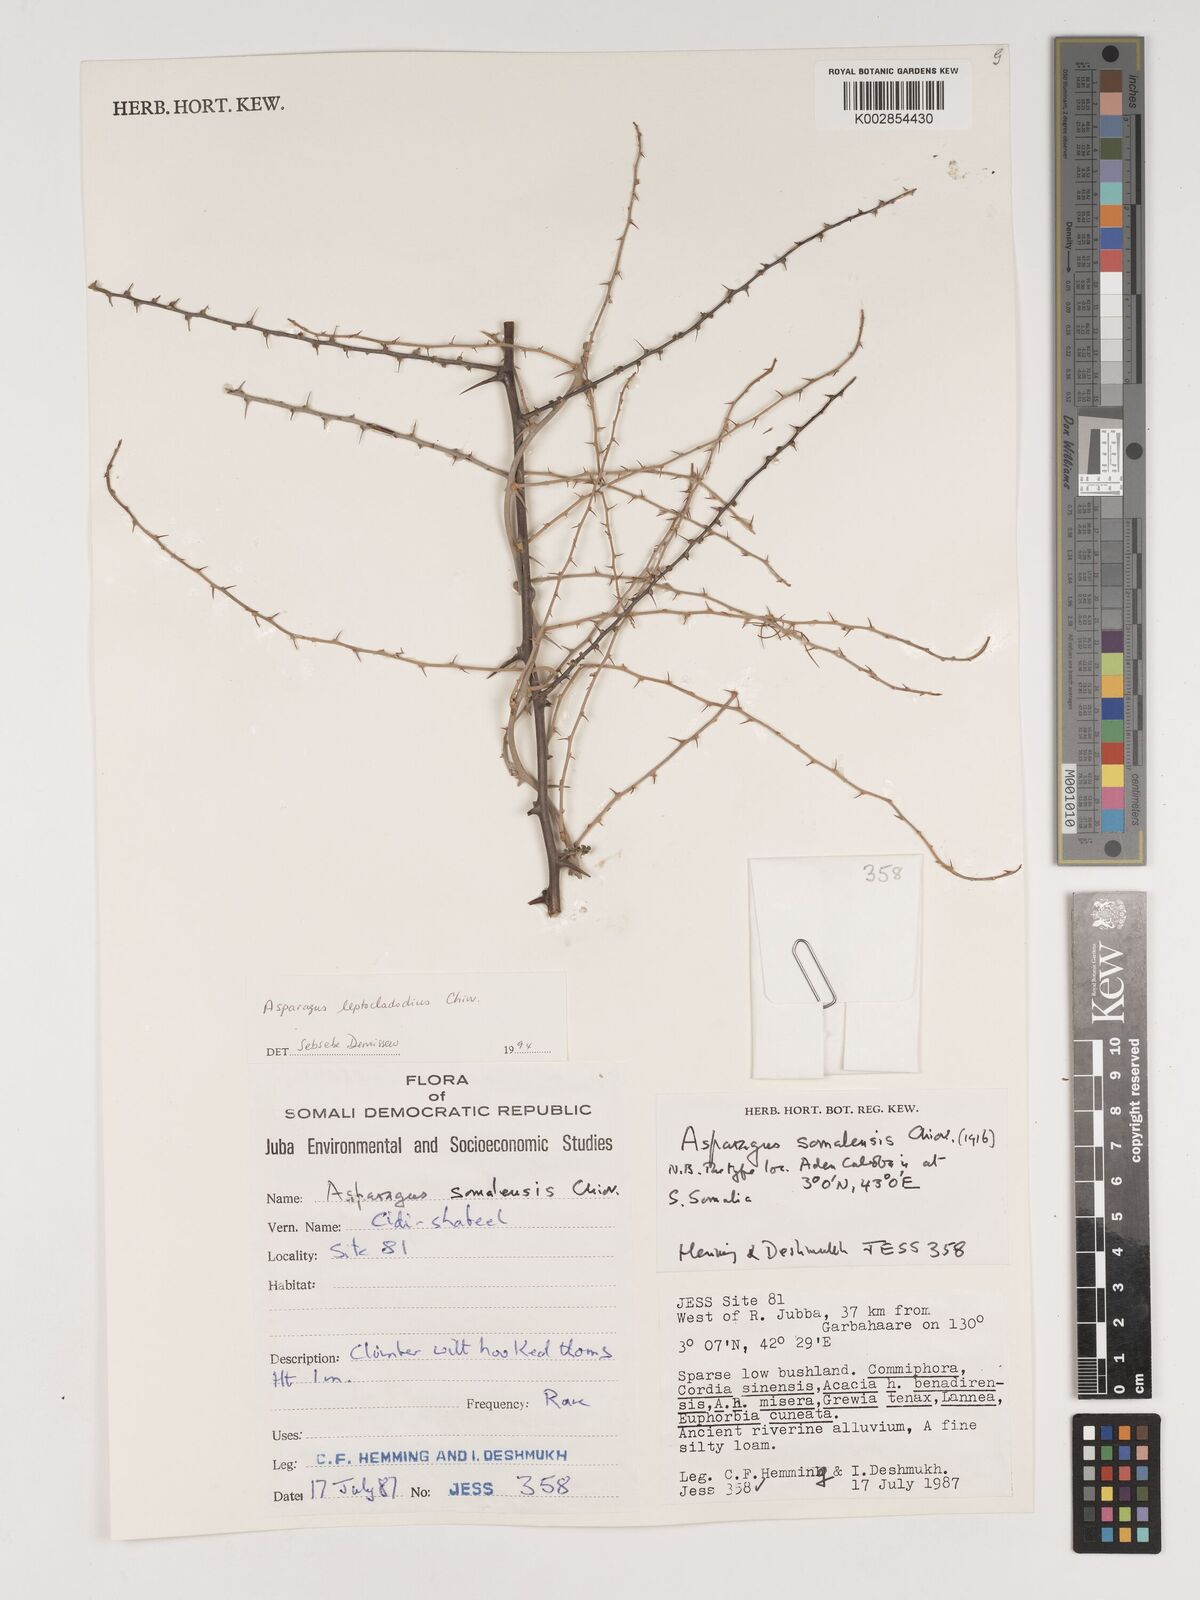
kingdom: Plantae
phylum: Tracheophyta
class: Liliopsida
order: Asparagales
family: Asparagaceae
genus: Asparagus
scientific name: Asparagus leptocladodius
